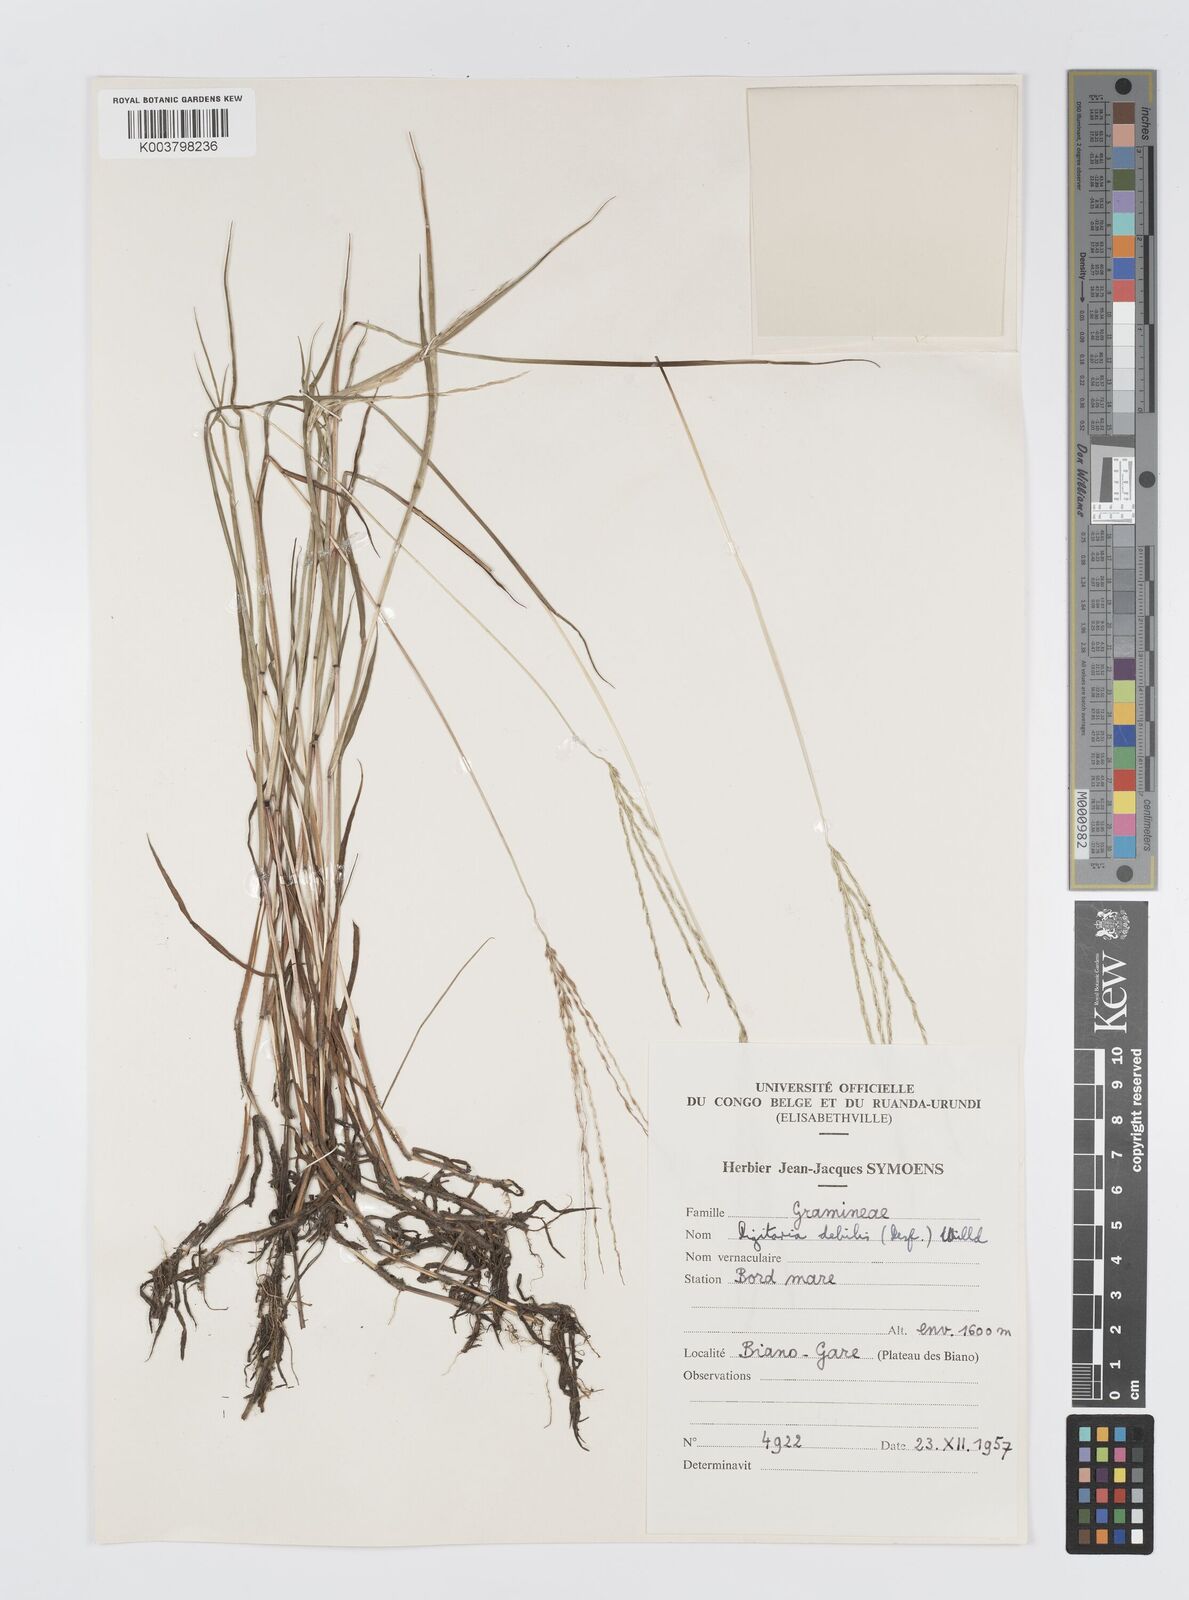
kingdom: Plantae
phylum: Tracheophyta
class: Liliopsida
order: Poales
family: Poaceae
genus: Digitaria
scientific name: Digitaria debilis
